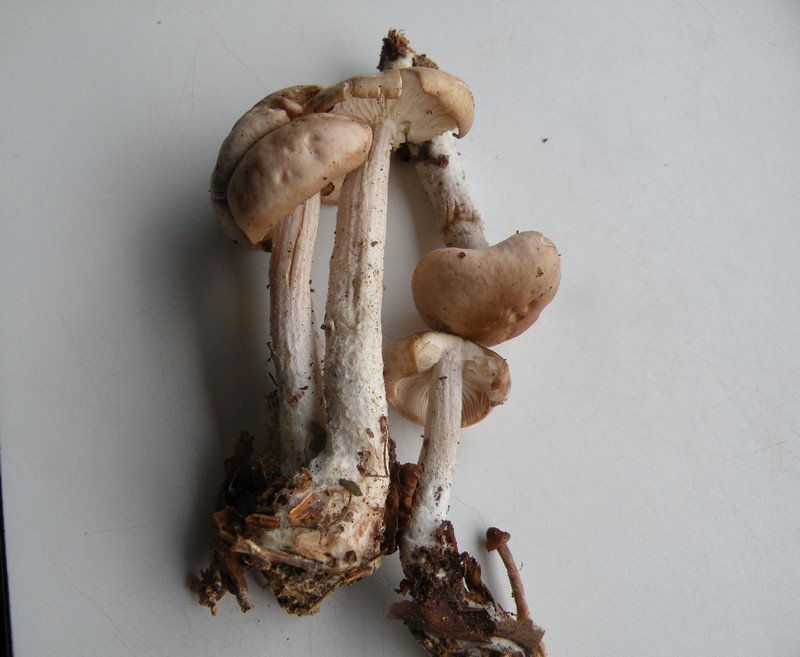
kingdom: Fungi
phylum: Basidiomycota
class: Agaricomycetes
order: Agaricales
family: Omphalotaceae
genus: Gymnopus
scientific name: Gymnopus hariolorum
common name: hvidkåls-fladhat
